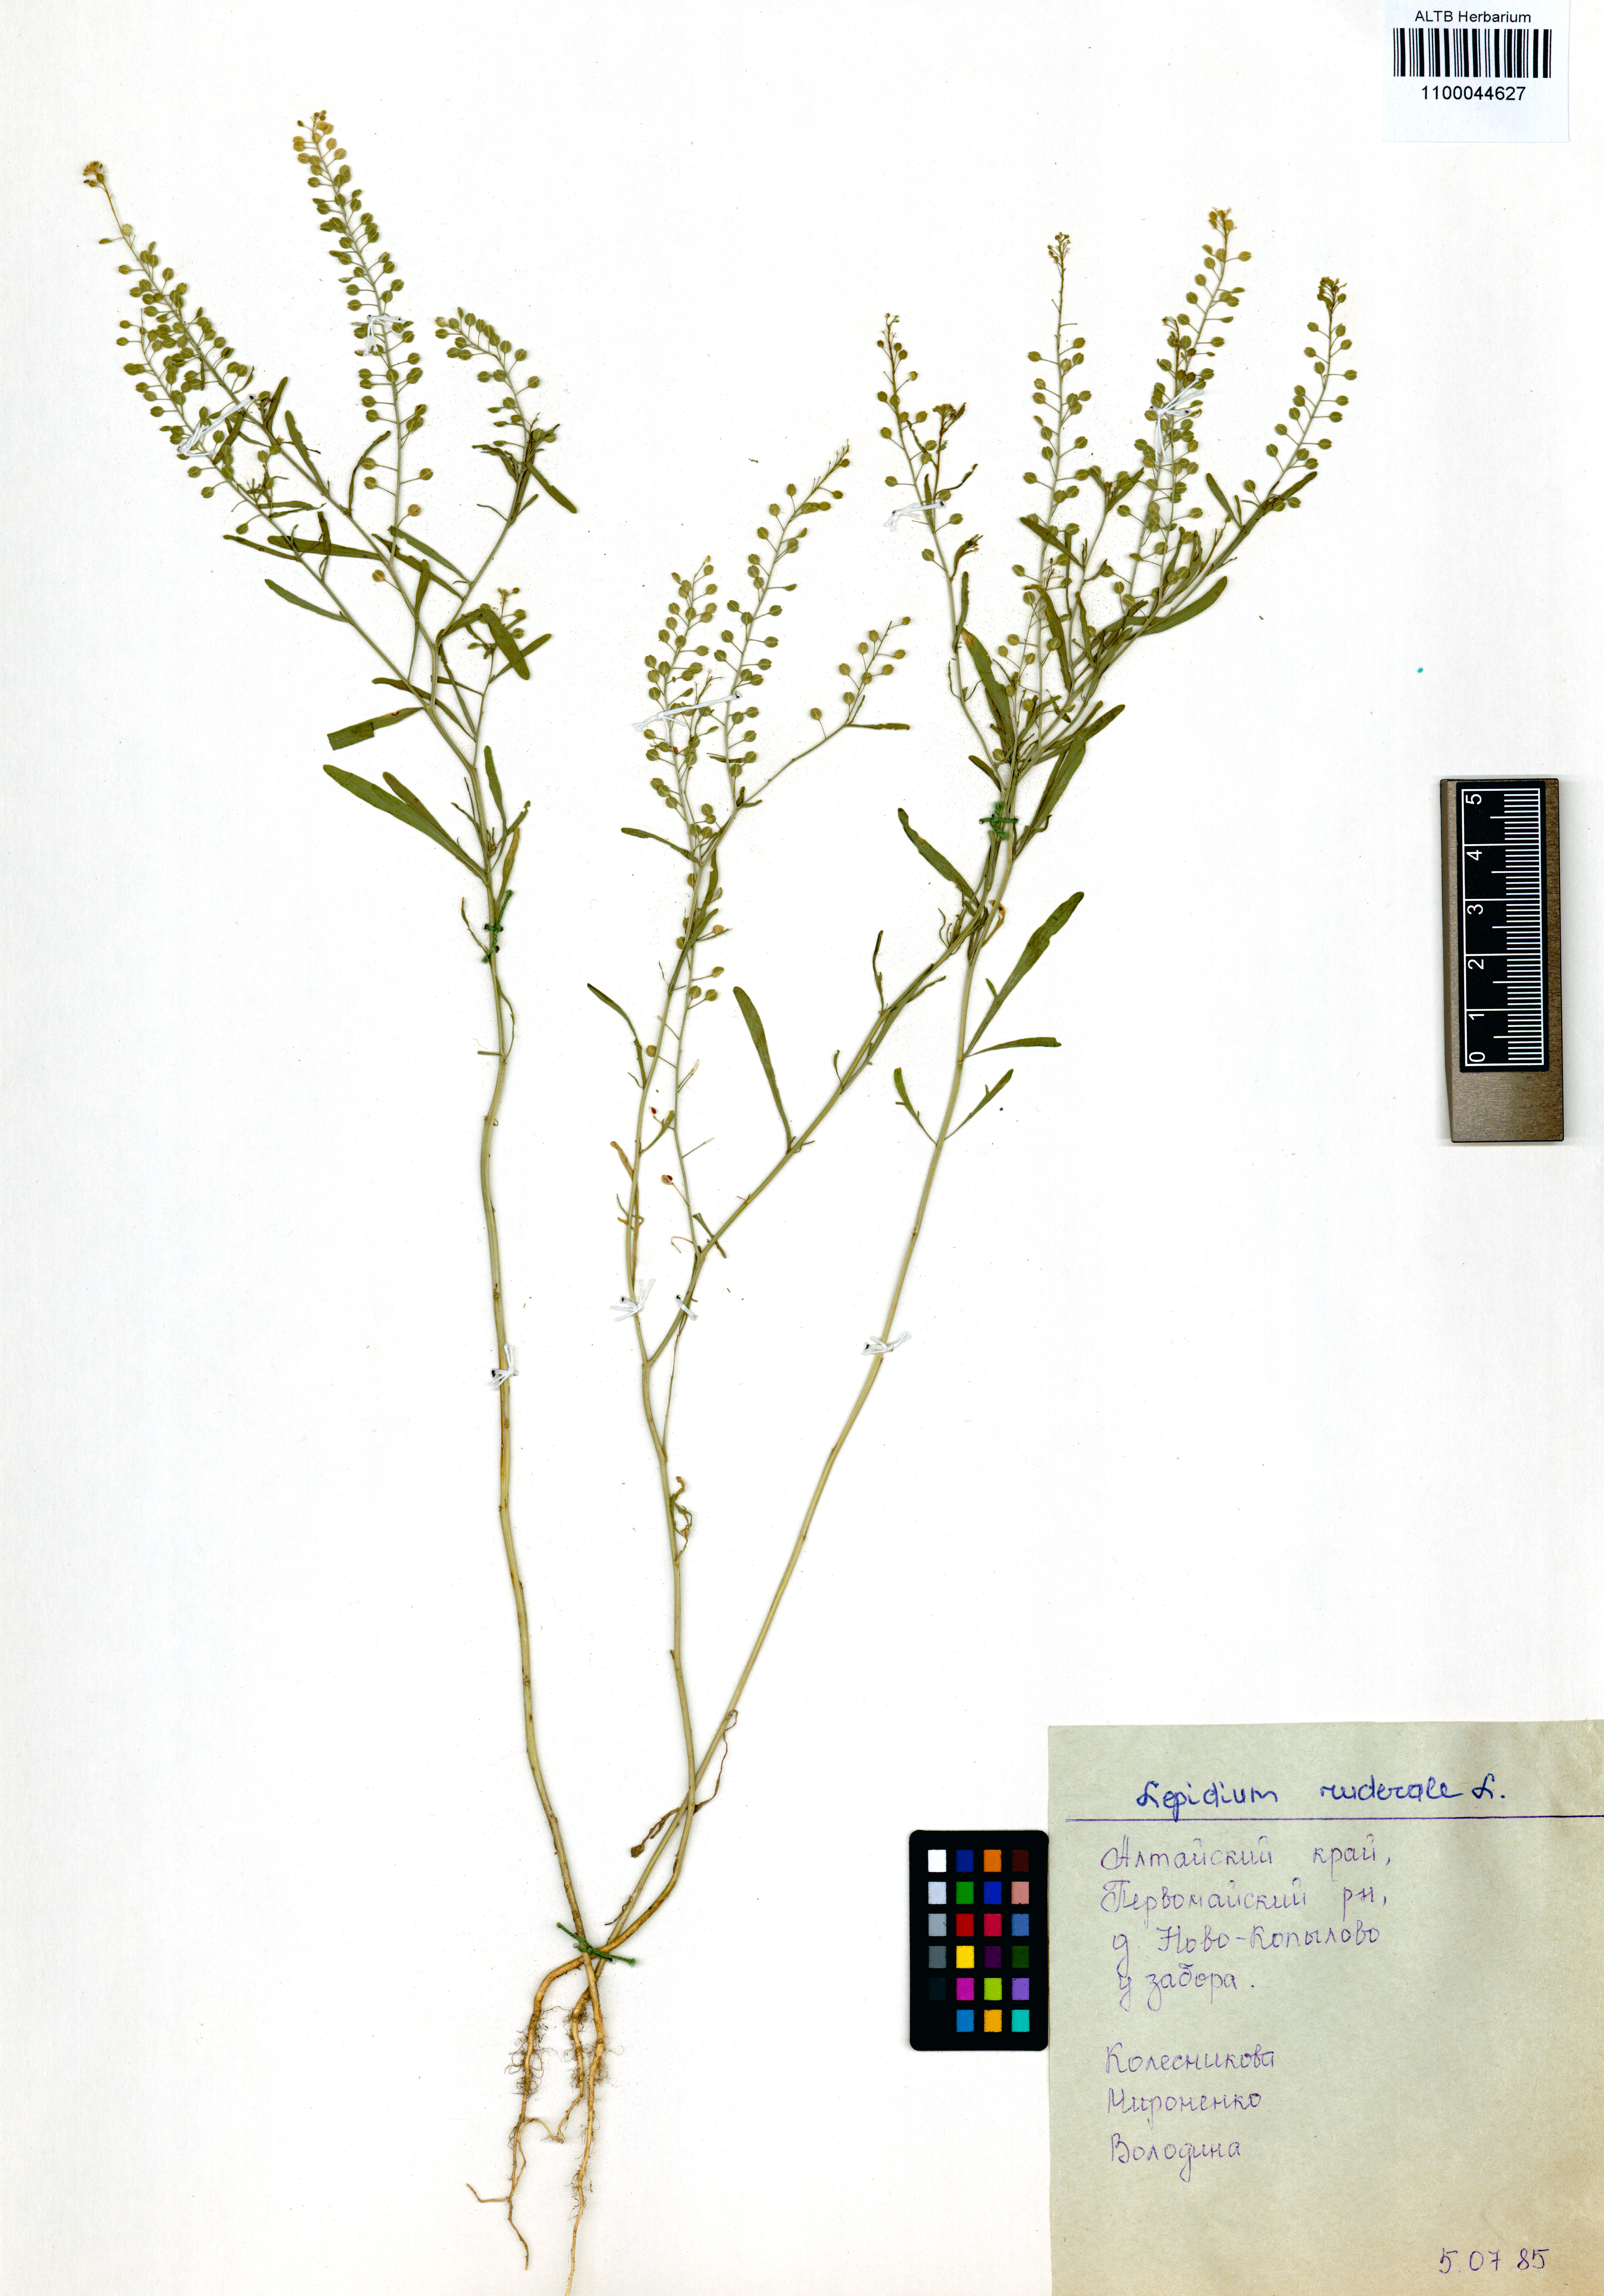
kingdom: Plantae
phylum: Tracheophyta
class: Magnoliopsida
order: Brassicales
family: Brassicaceae
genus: Lepidium
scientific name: Lepidium ruderale
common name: Narrow-leaved pepperwort
